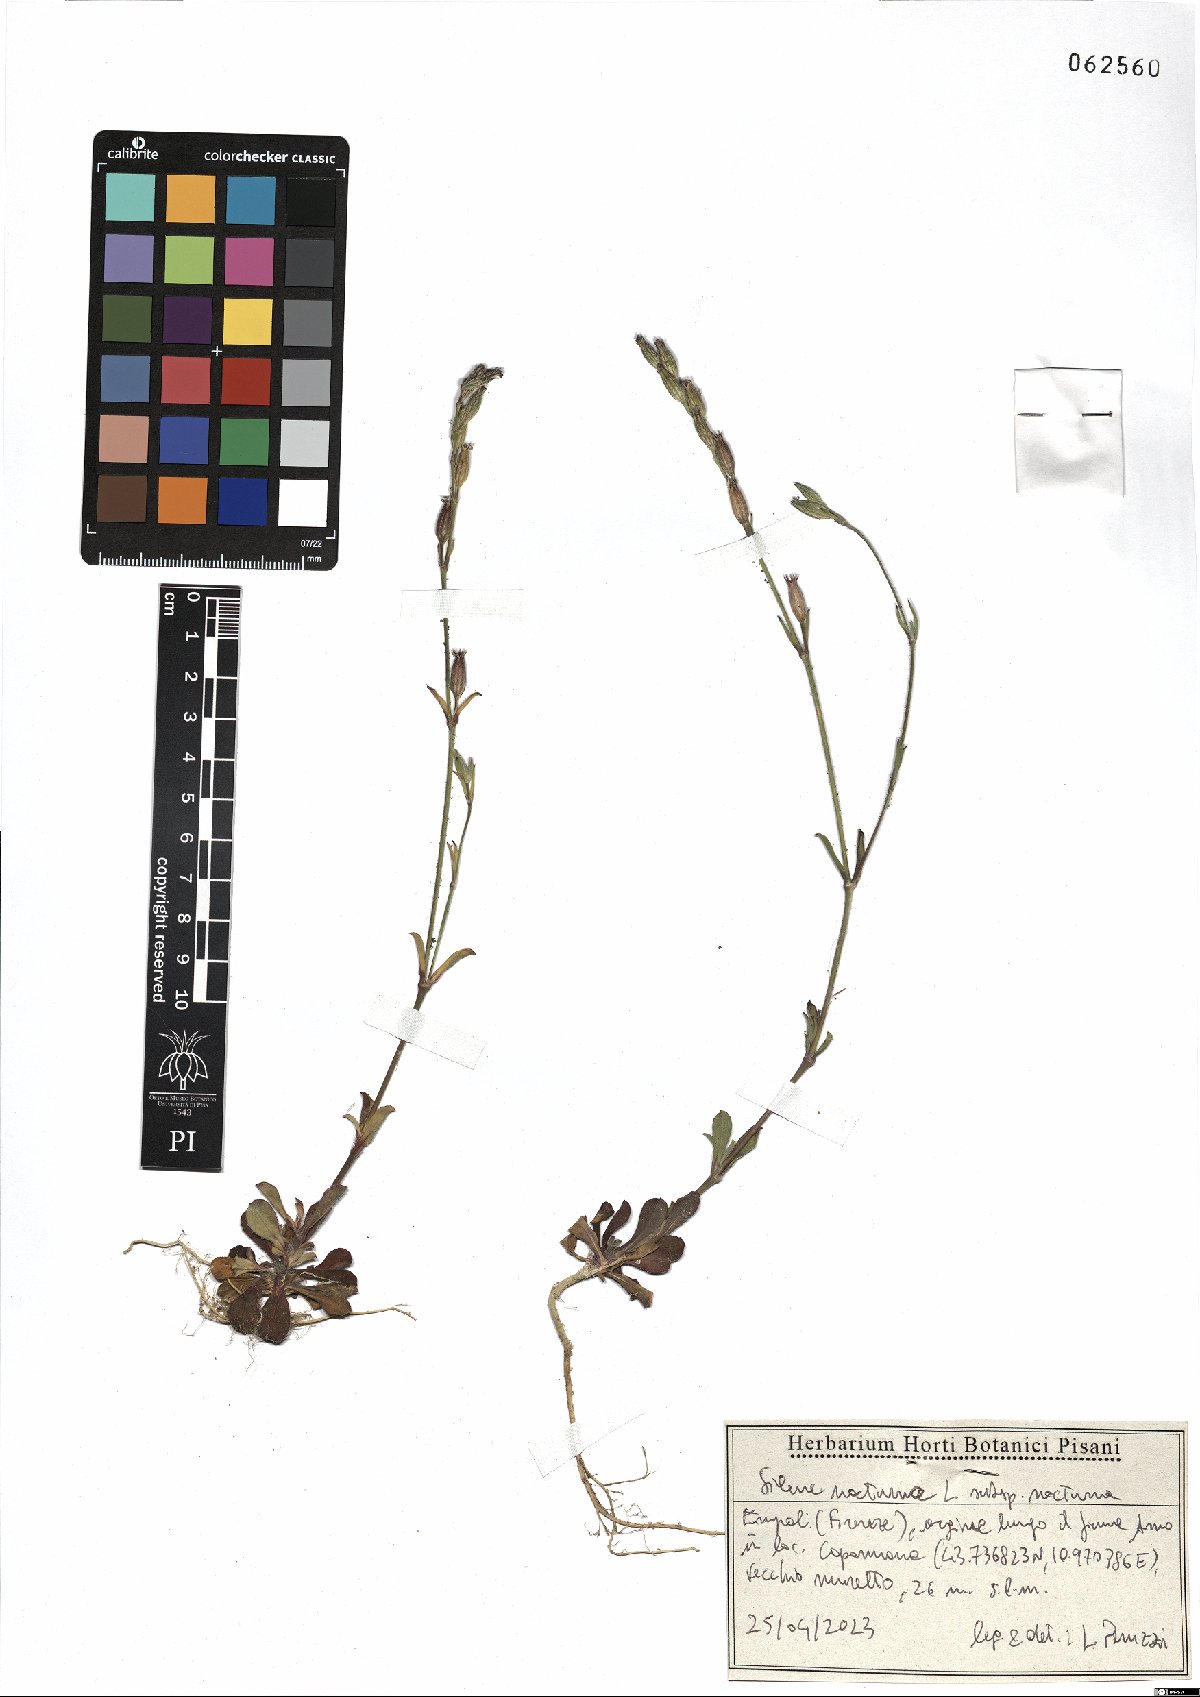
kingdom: Plantae
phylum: Tracheophyta
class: Magnoliopsida
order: Caryophyllales
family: Caryophyllaceae
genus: Silene
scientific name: Silene nocturna
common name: Mediterranean catchfly
